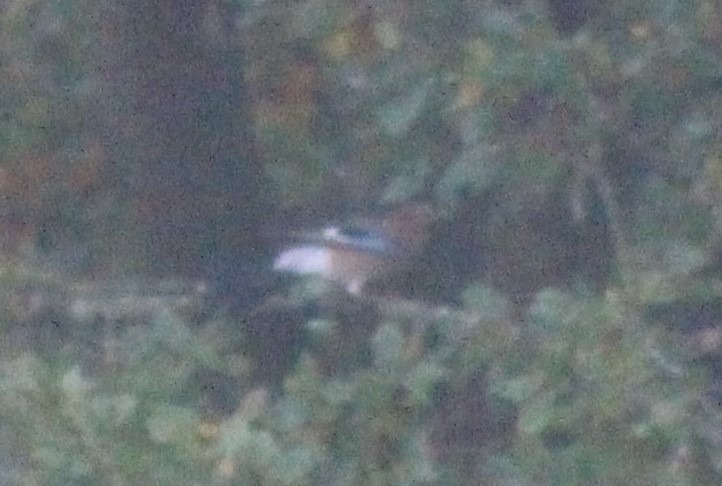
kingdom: Animalia
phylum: Chordata
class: Aves
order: Passeriformes
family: Corvidae
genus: Garrulus
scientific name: Garrulus glandarius
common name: Skovskade
